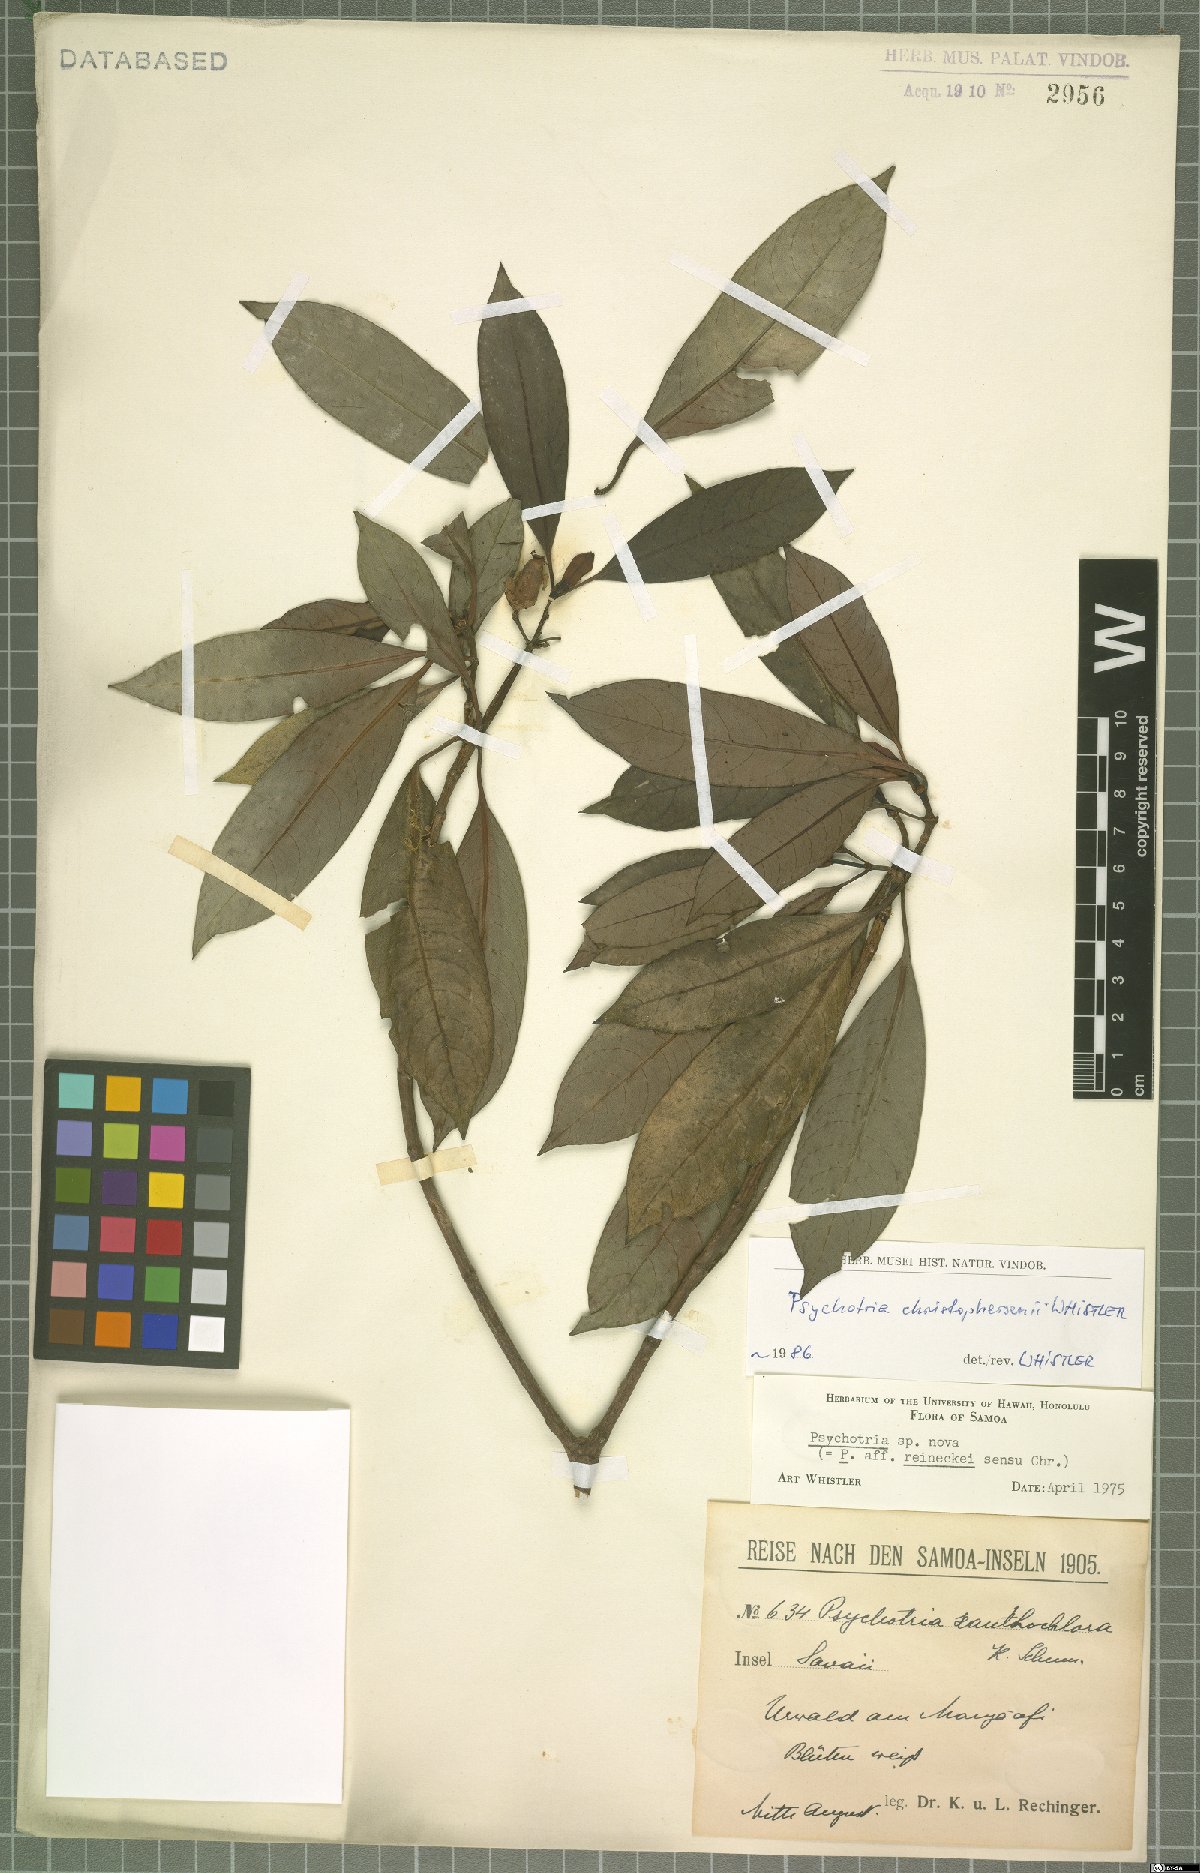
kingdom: Plantae
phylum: Tracheophyta
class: Magnoliopsida
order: Gentianales
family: Rubiaceae
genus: Psychotria
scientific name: Psychotria christophersenii
